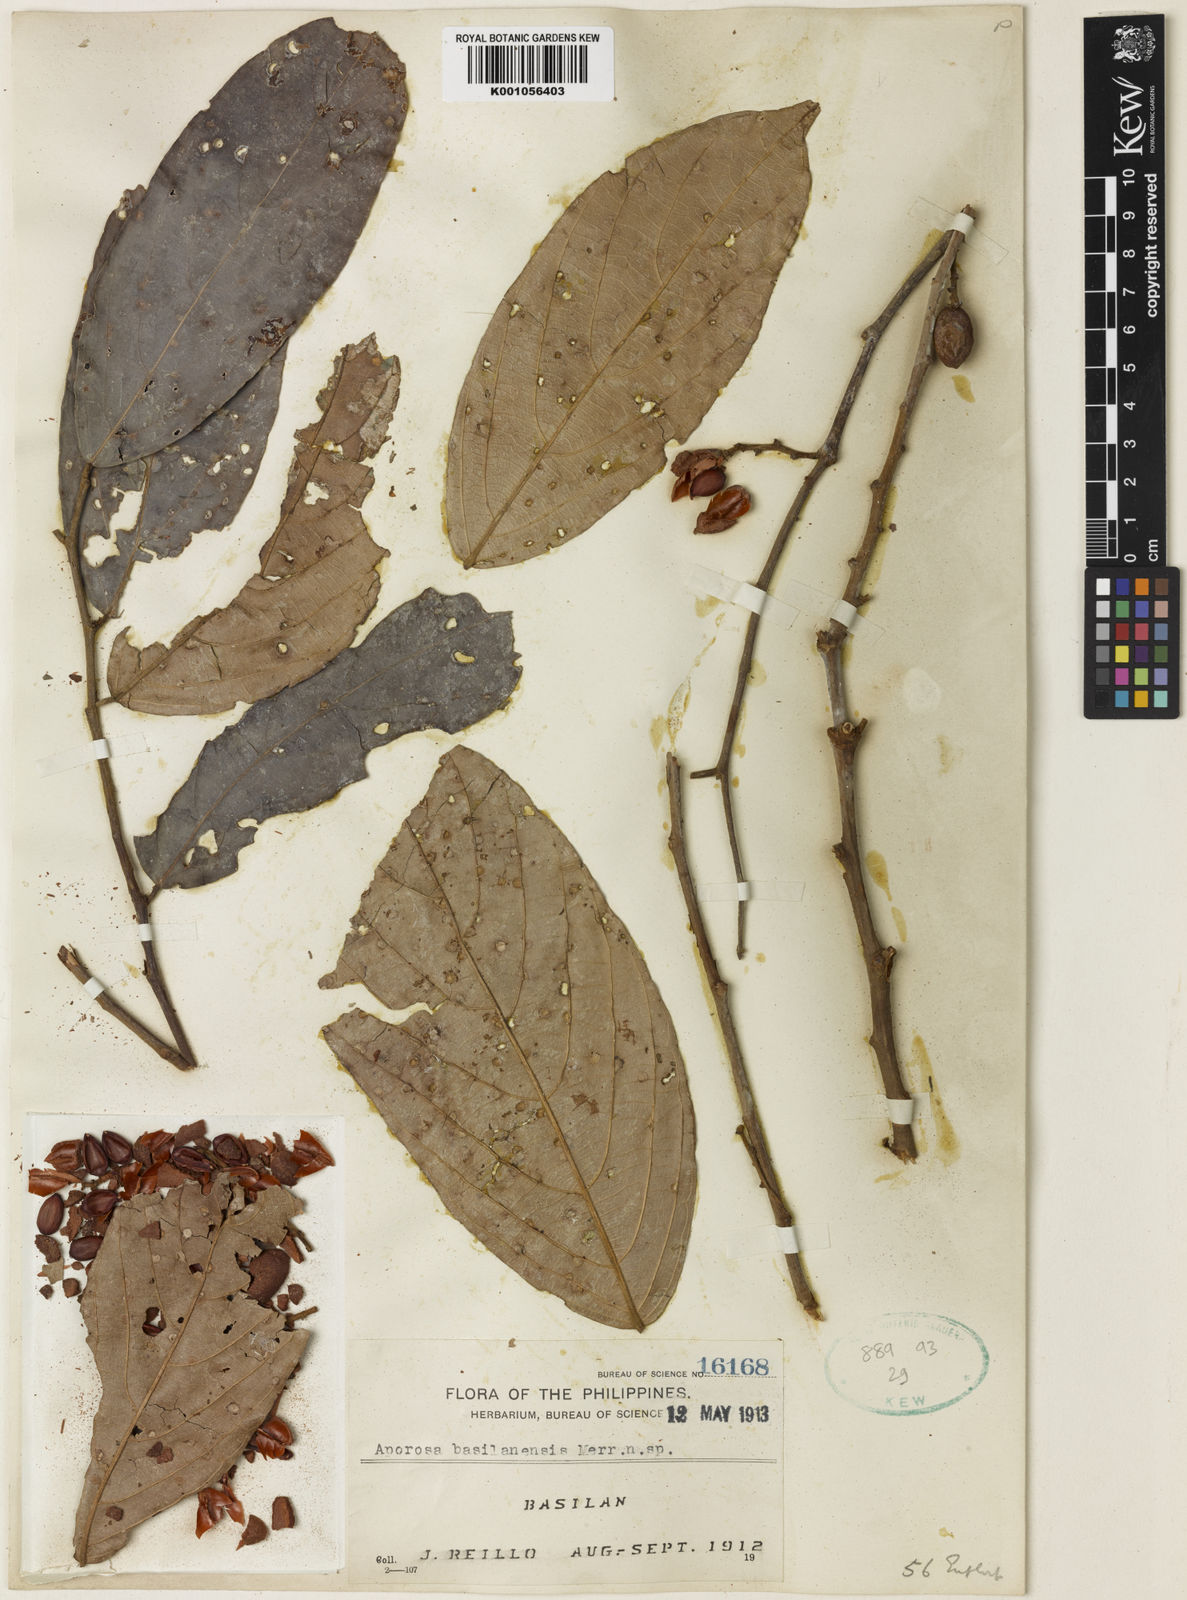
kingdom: Plantae
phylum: Tracheophyta
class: Magnoliopsida
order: Malpighiales
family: Phyllanthaceae
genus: Aporosa
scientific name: Aporosa basilanensis
